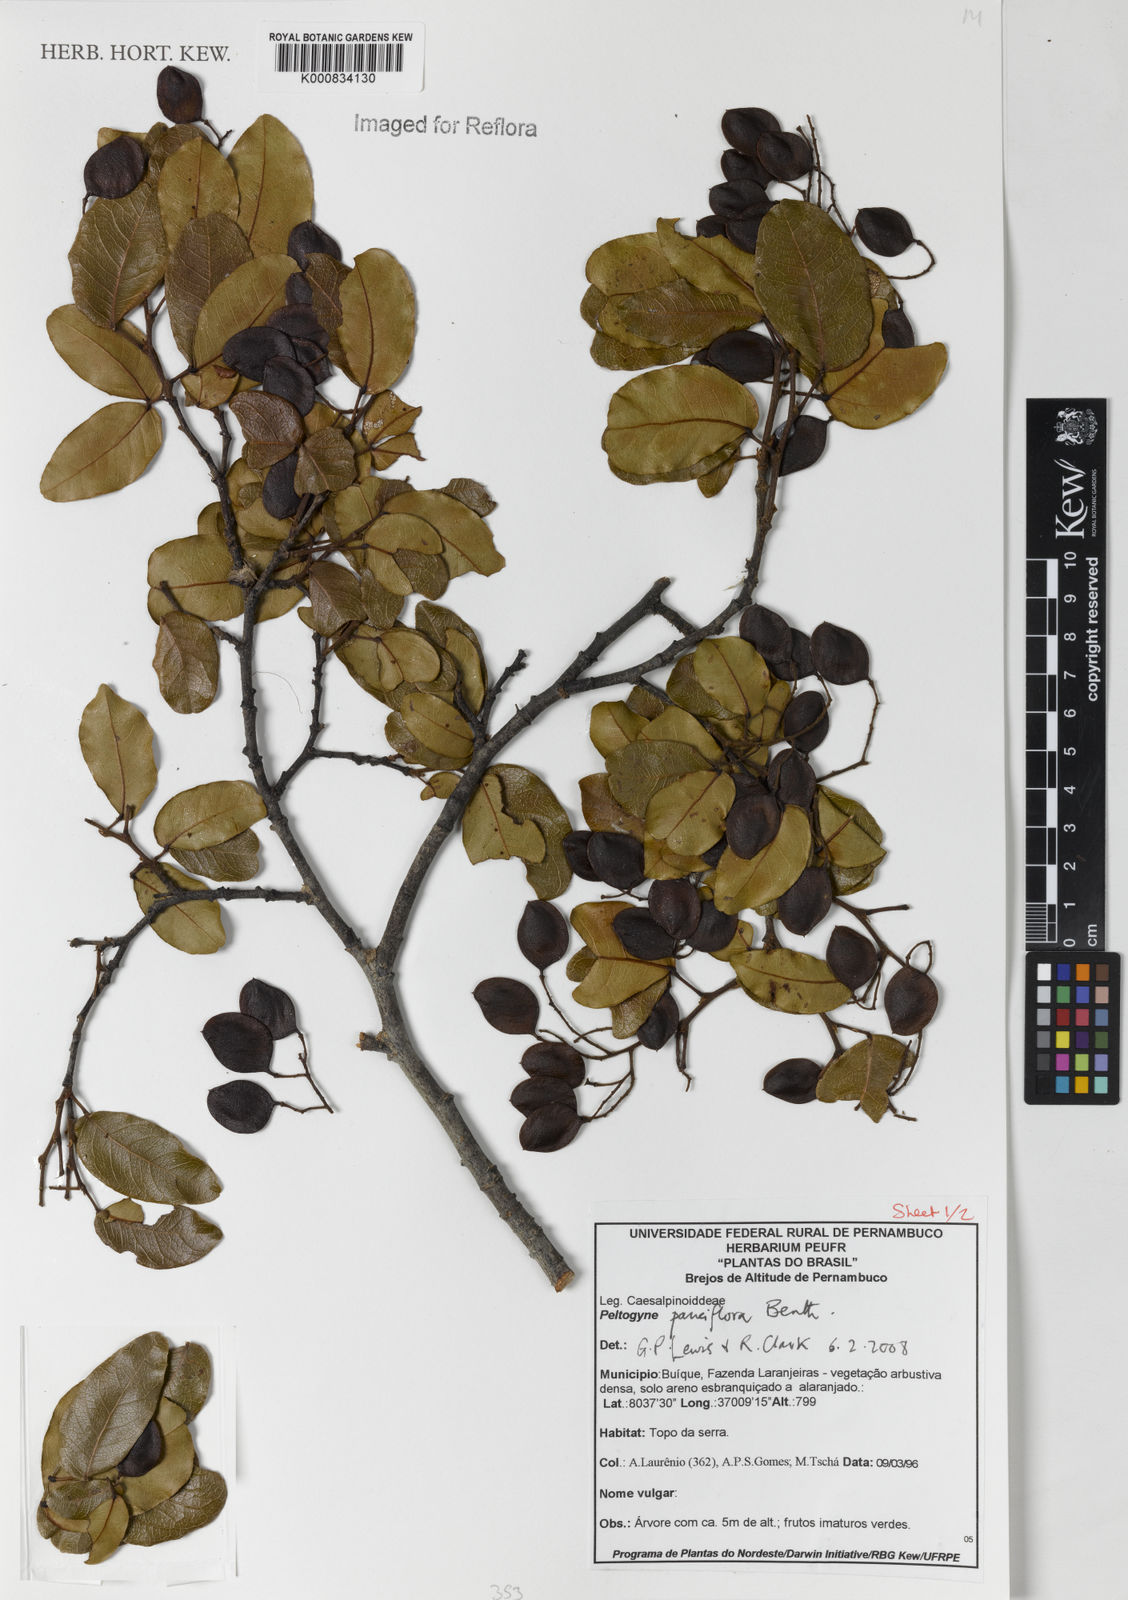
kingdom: Plantae
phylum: Tracheophyta
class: Magnoliopsida
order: Fabales
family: Fabaceae
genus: Peltogyne
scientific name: Peltogyne pauciflora
